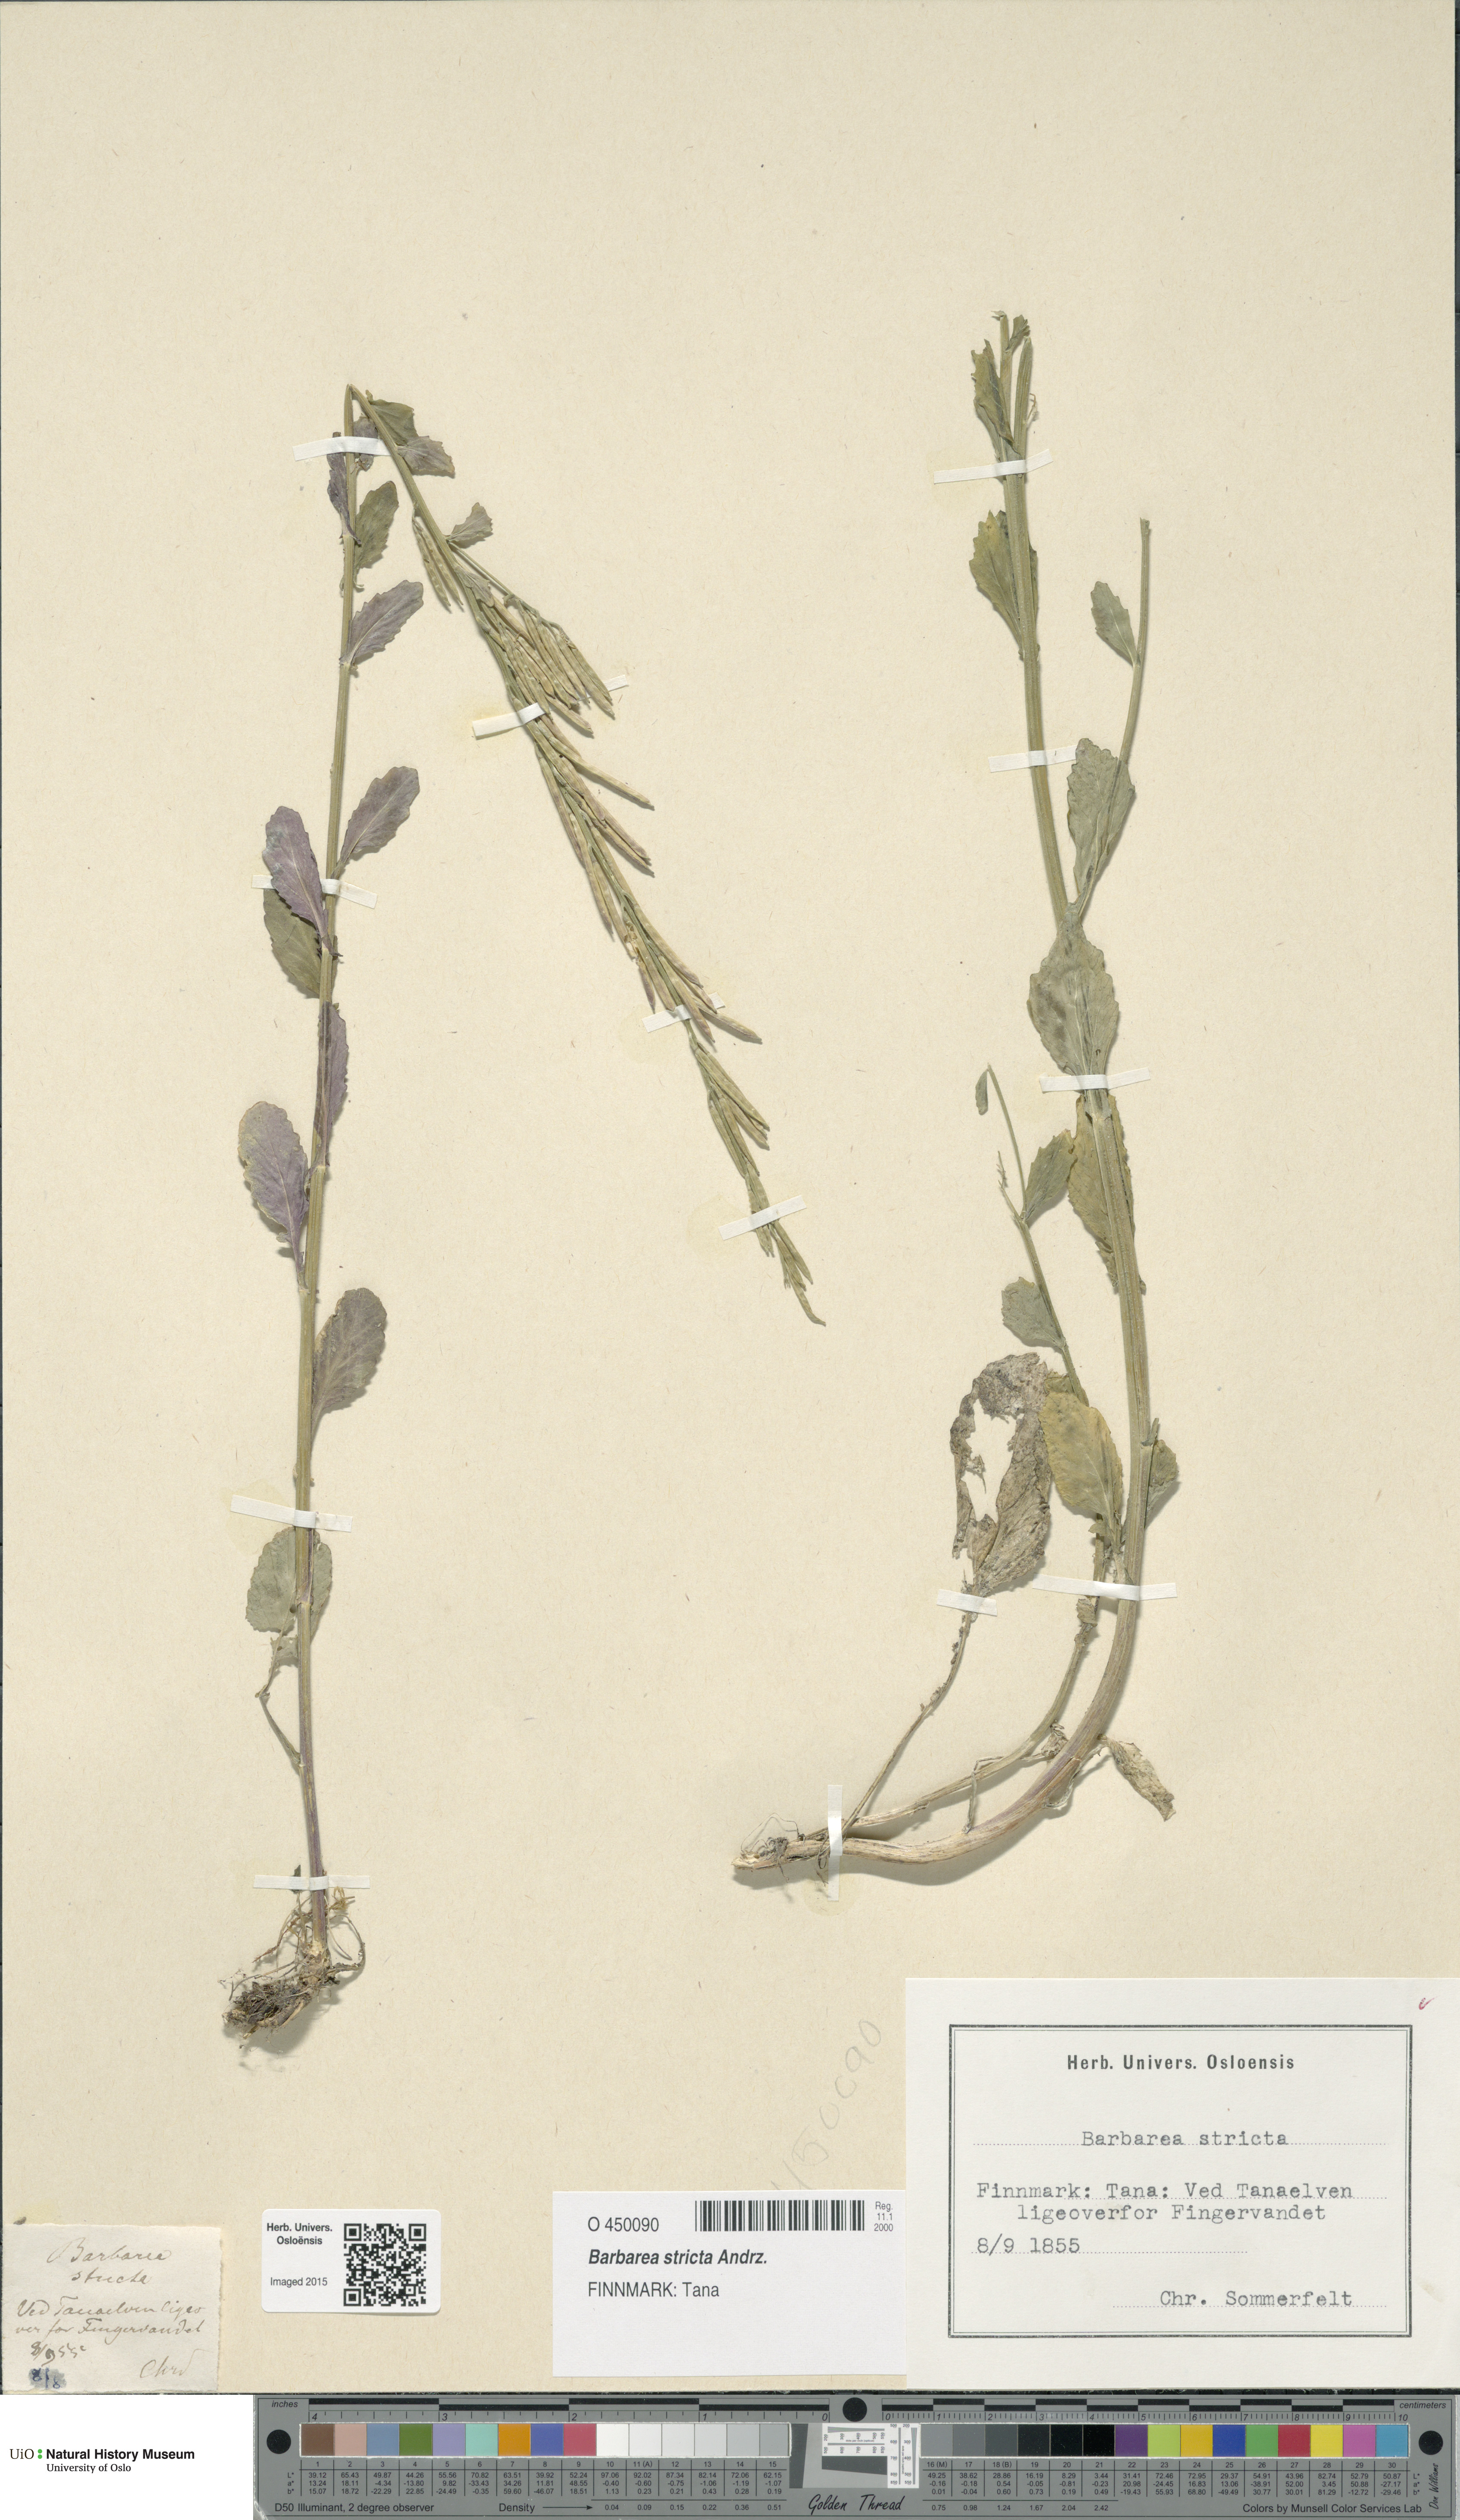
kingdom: Plantae
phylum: Tracheophyta
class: Magnoliopsida
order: Brassicales
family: Brassicaceae
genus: Barbarea
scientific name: Barbarea stricta
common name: Small-flowered winter-cress
